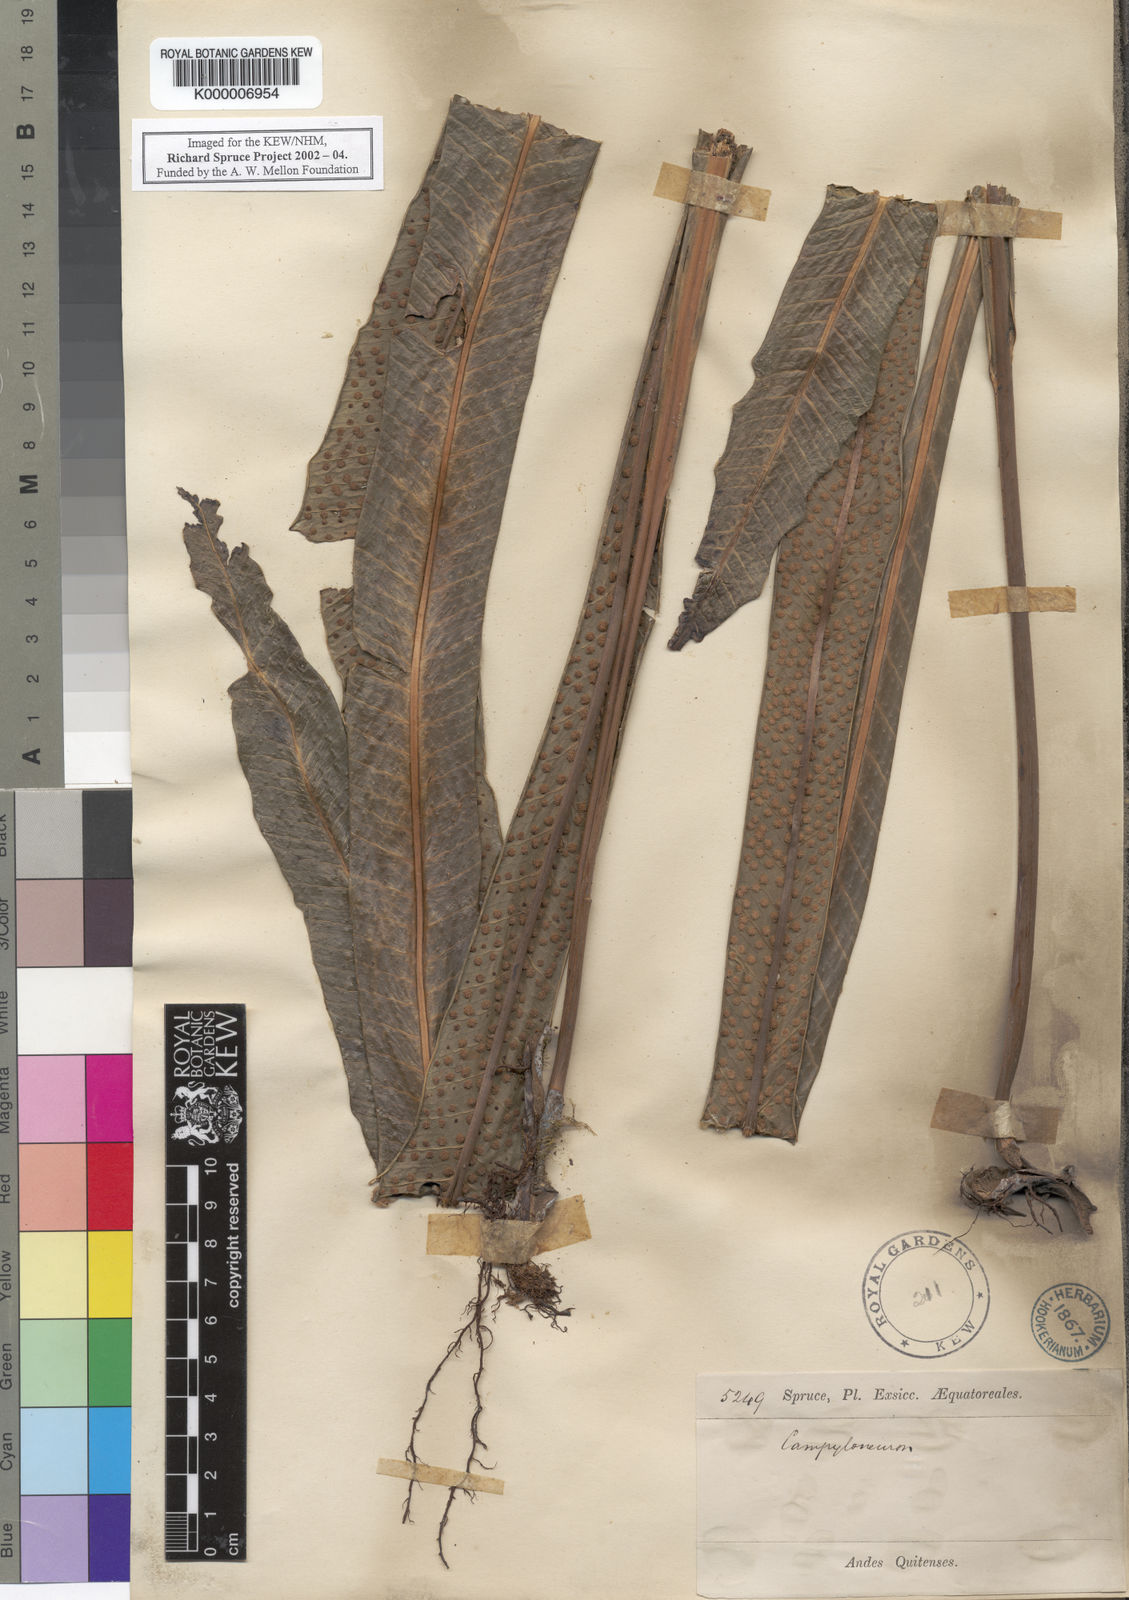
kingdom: Plantae
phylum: Tracheophyta
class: Polypodiopsida
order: Polypodiales
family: Polypodiaceae
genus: Niphidium
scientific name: Niphidium crassifolium
